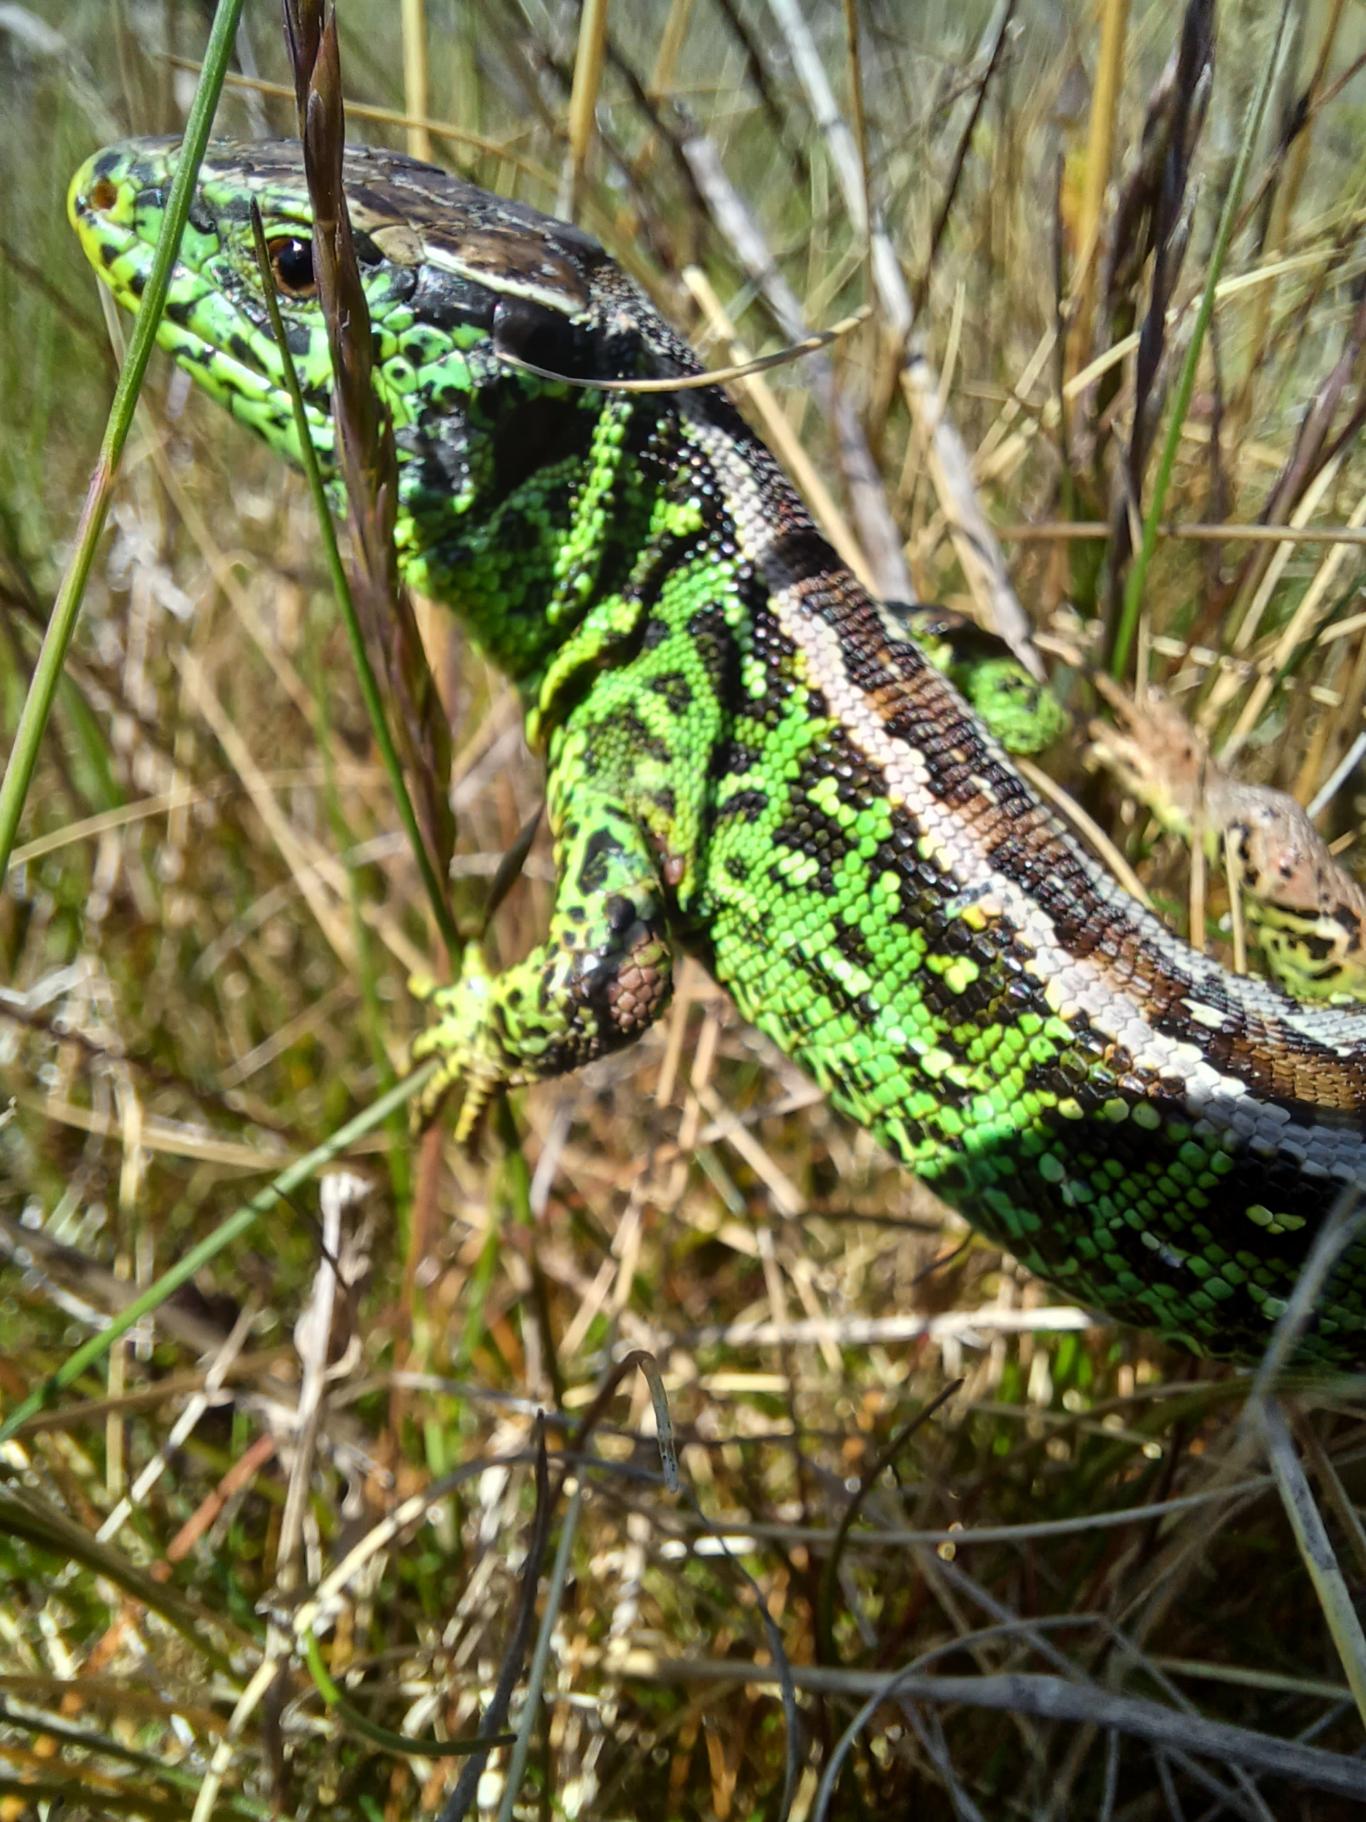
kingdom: Animalia
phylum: Chordata
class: Squamata
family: Lacertidae
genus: Lacerta
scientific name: Lacerta agilis
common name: Markfirben
